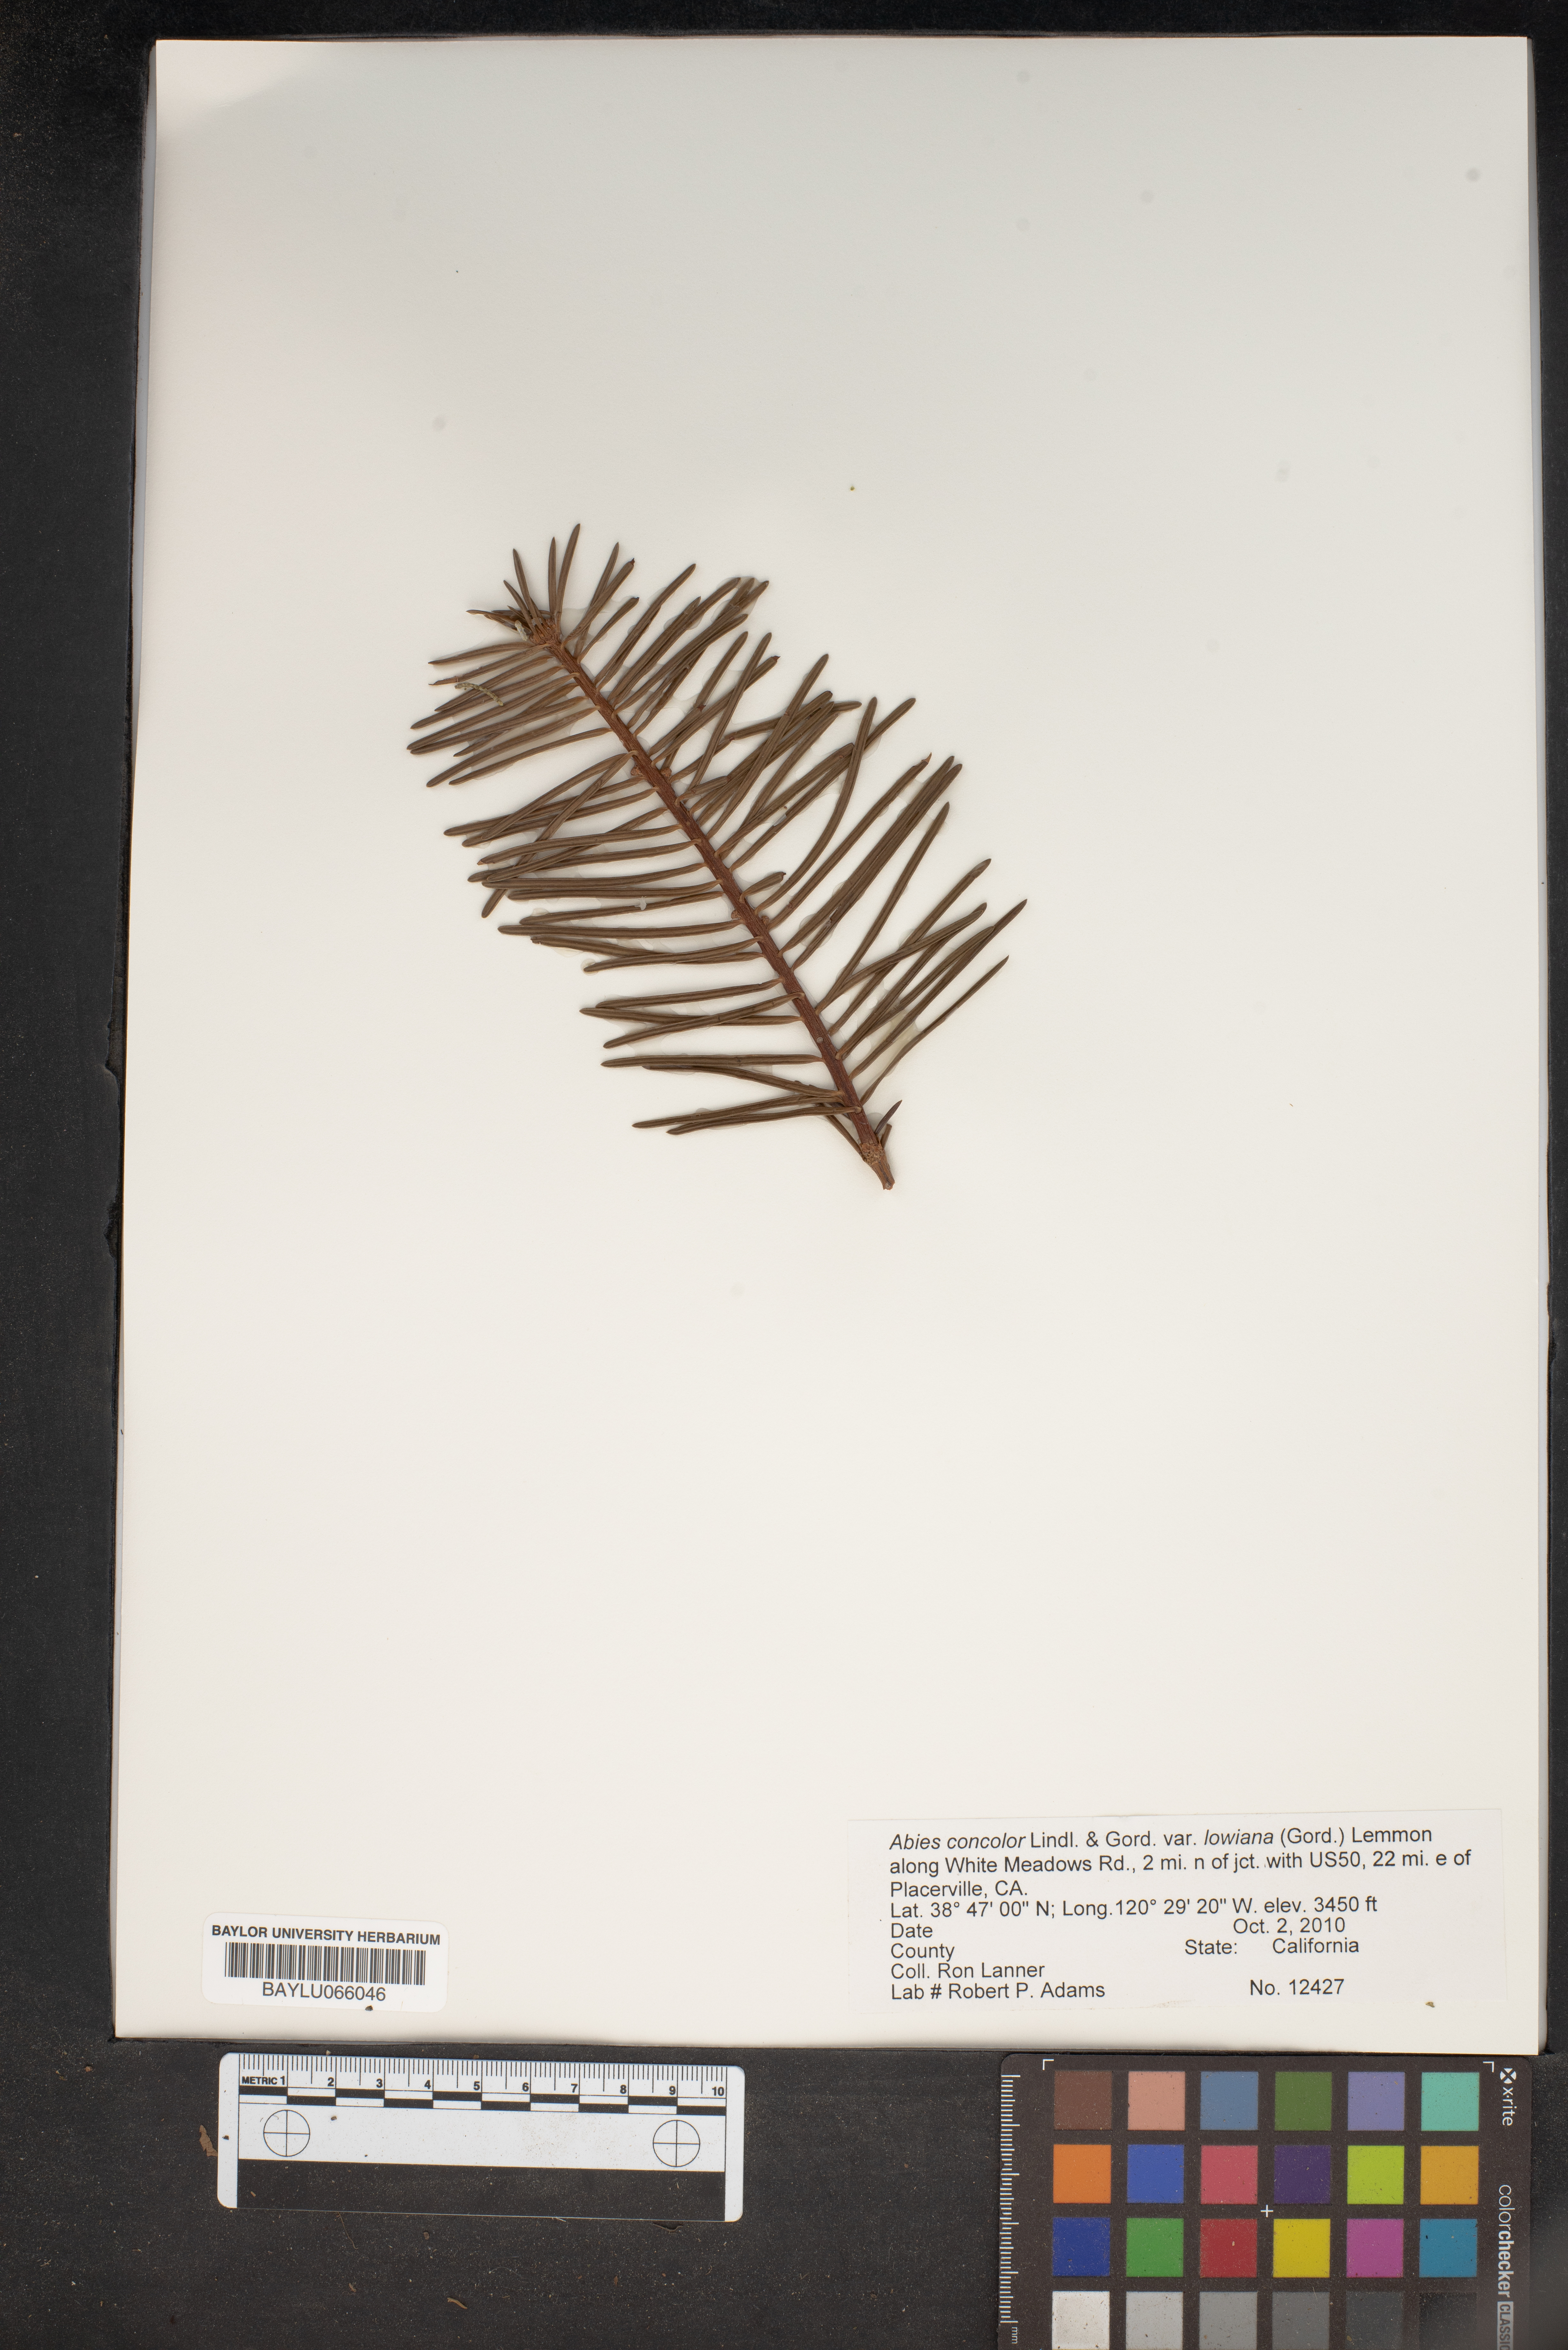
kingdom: Plantae
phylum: Tracheophyta
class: Pinopsida
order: Pinales
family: Pinaceae
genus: Abies
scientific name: Abies concolor
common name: Colorado fir
